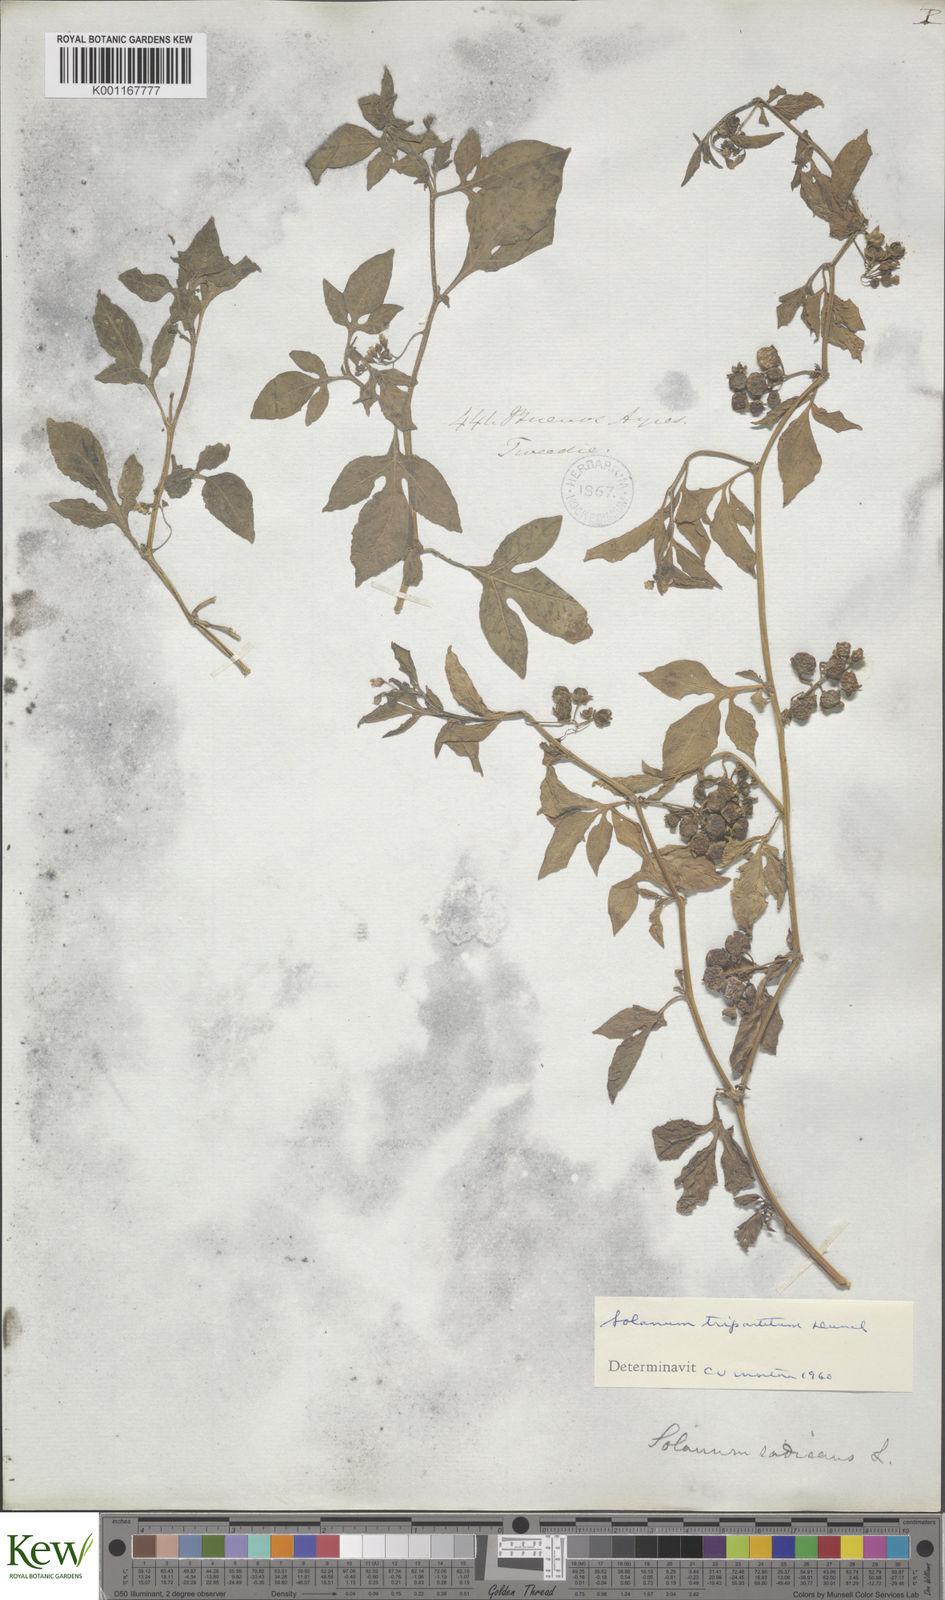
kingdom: Plantae
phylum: Tracheophyta
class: Magnoliopsida
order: Solanales
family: Solanaceae
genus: Solanum
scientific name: Solanum palitans
